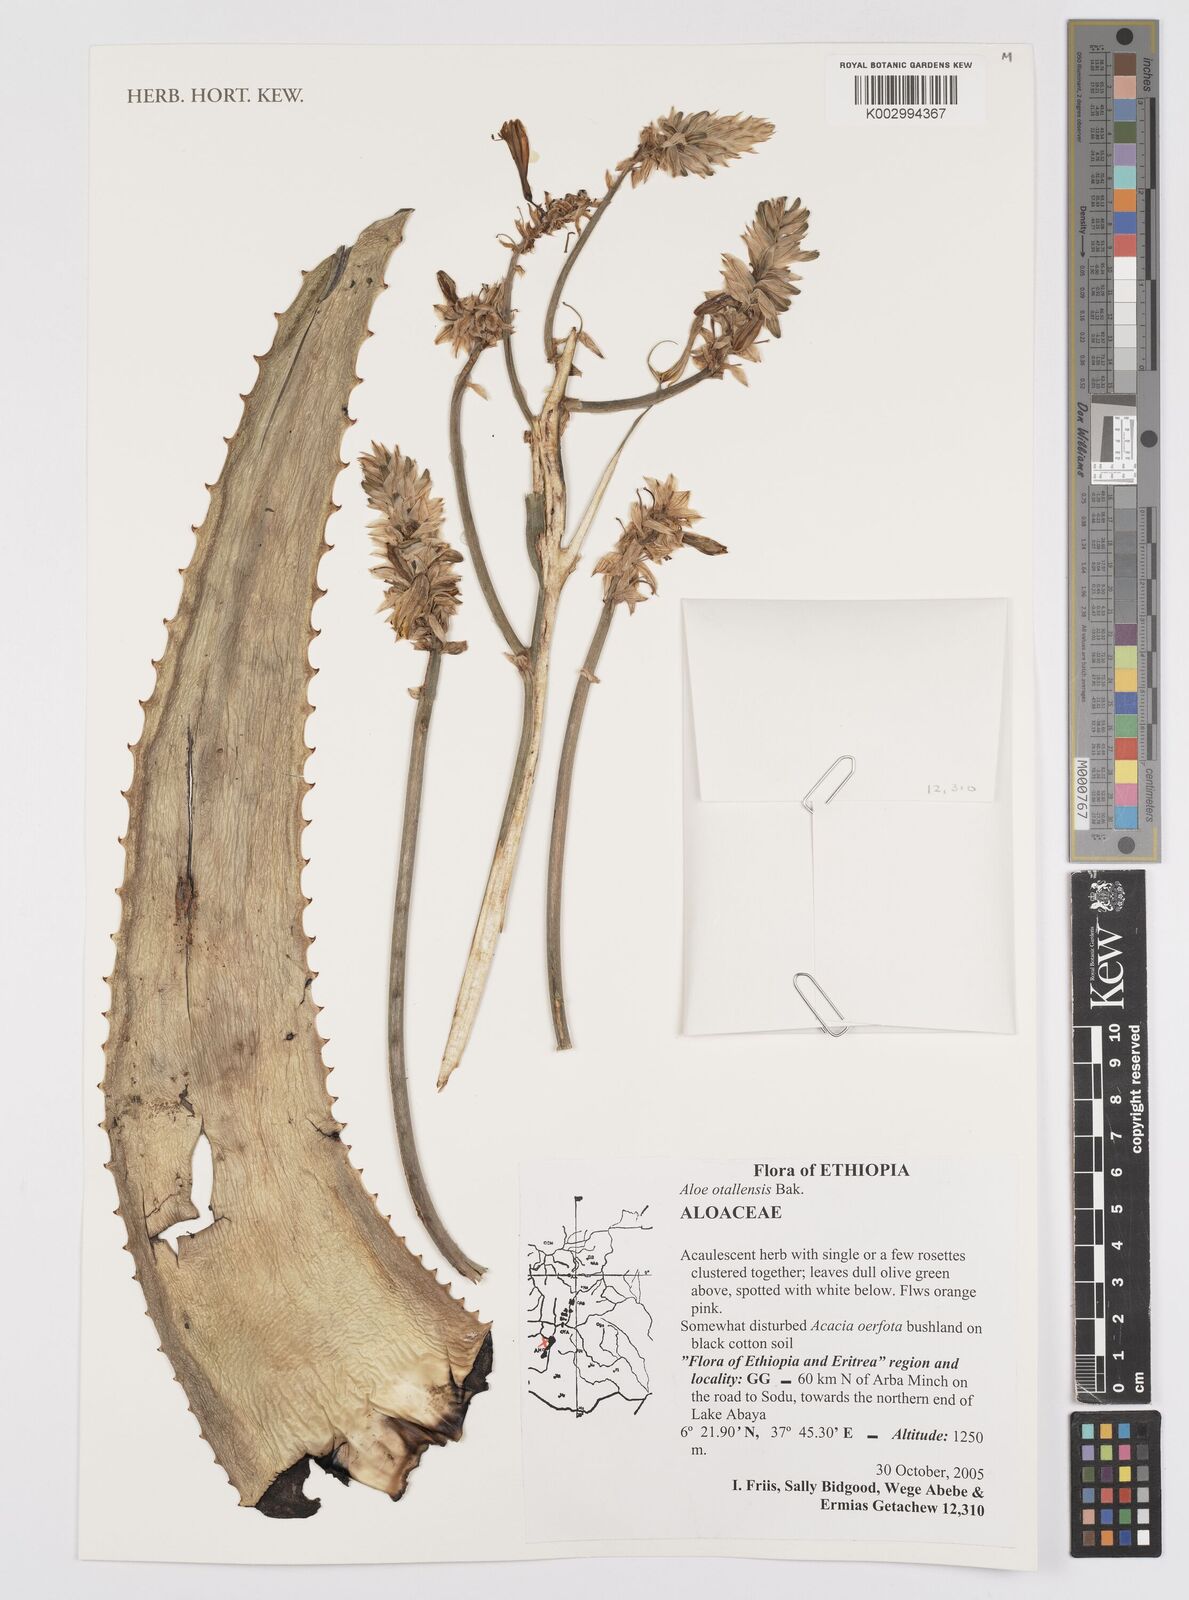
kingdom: Plantae
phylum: Tracheophyta
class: Liliopsida
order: Asparagales
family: Asphodelaceae
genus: Aloe
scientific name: Aloe otallensis
